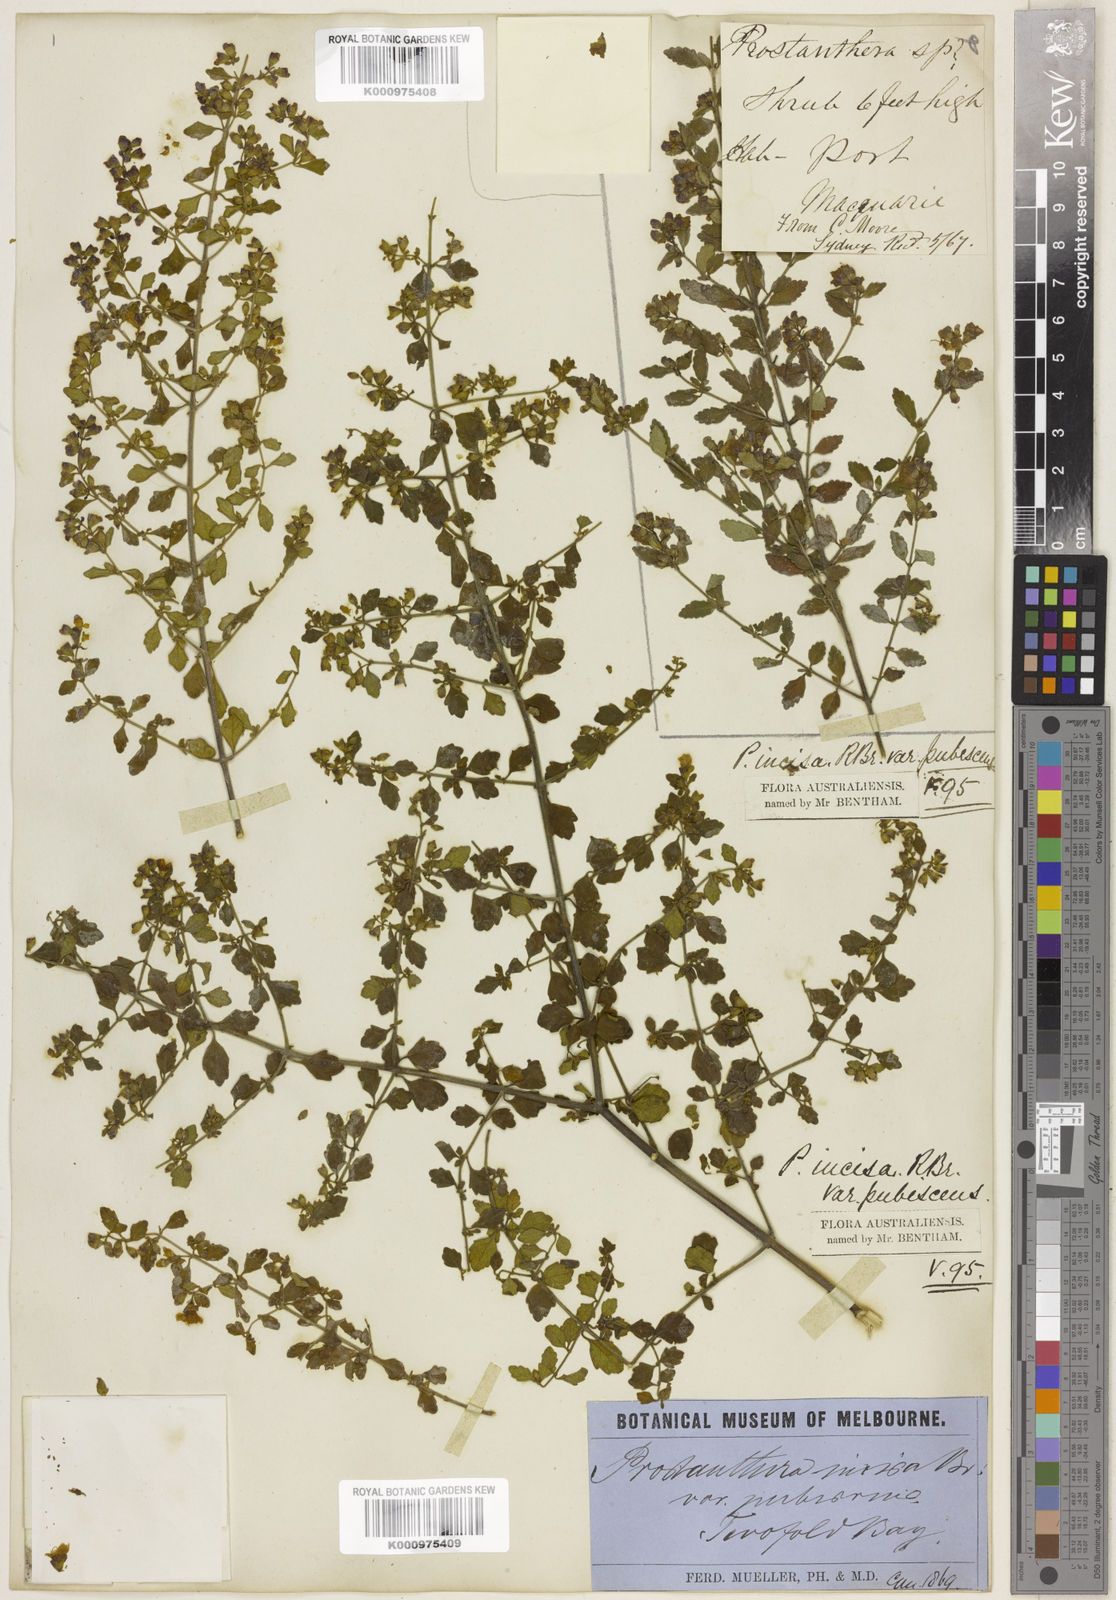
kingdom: Plantae
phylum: Tracheophyta
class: Magnoliopsida
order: Lamiales
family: Lamiaceae
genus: Prostanthera
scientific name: Prostanthera incisa
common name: Cut-leaf mintbush
